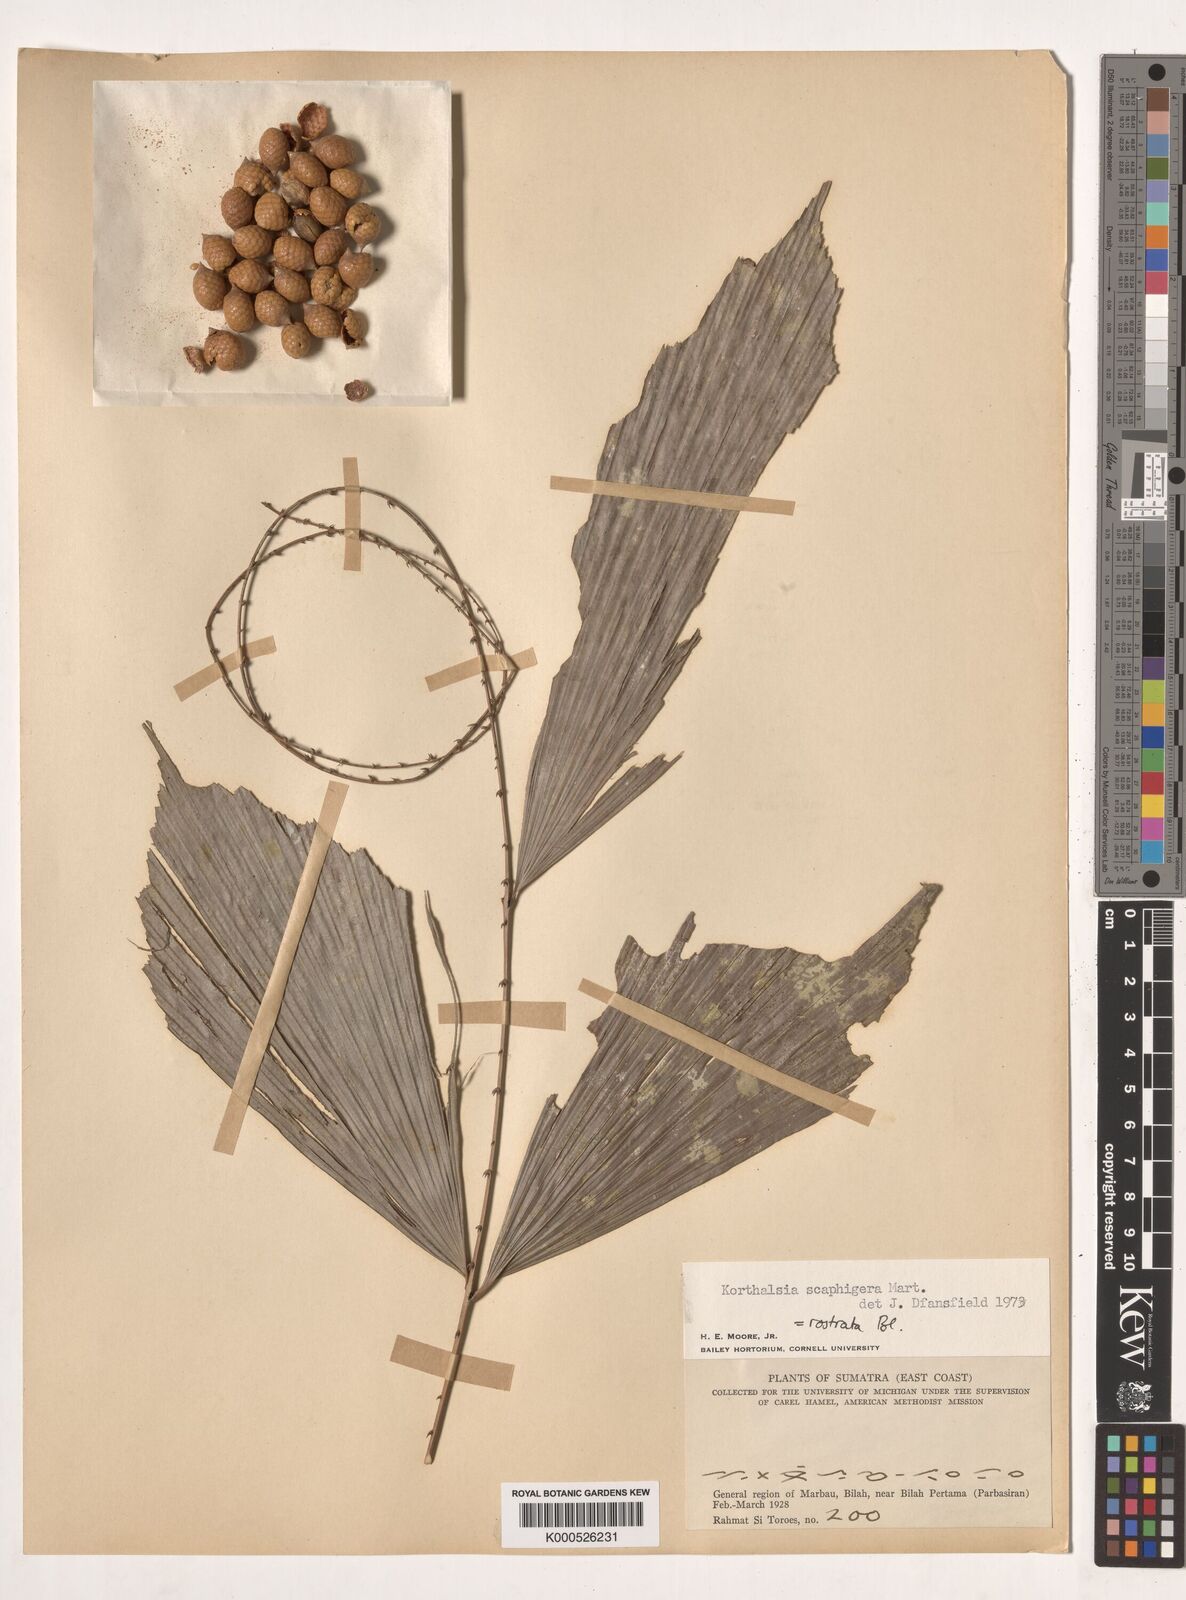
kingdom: Plantae
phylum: Tracheophyta
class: Liliopsida
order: Arecales
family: Arecaceae
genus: Korthalsia
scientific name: Korthalsia rostrata
